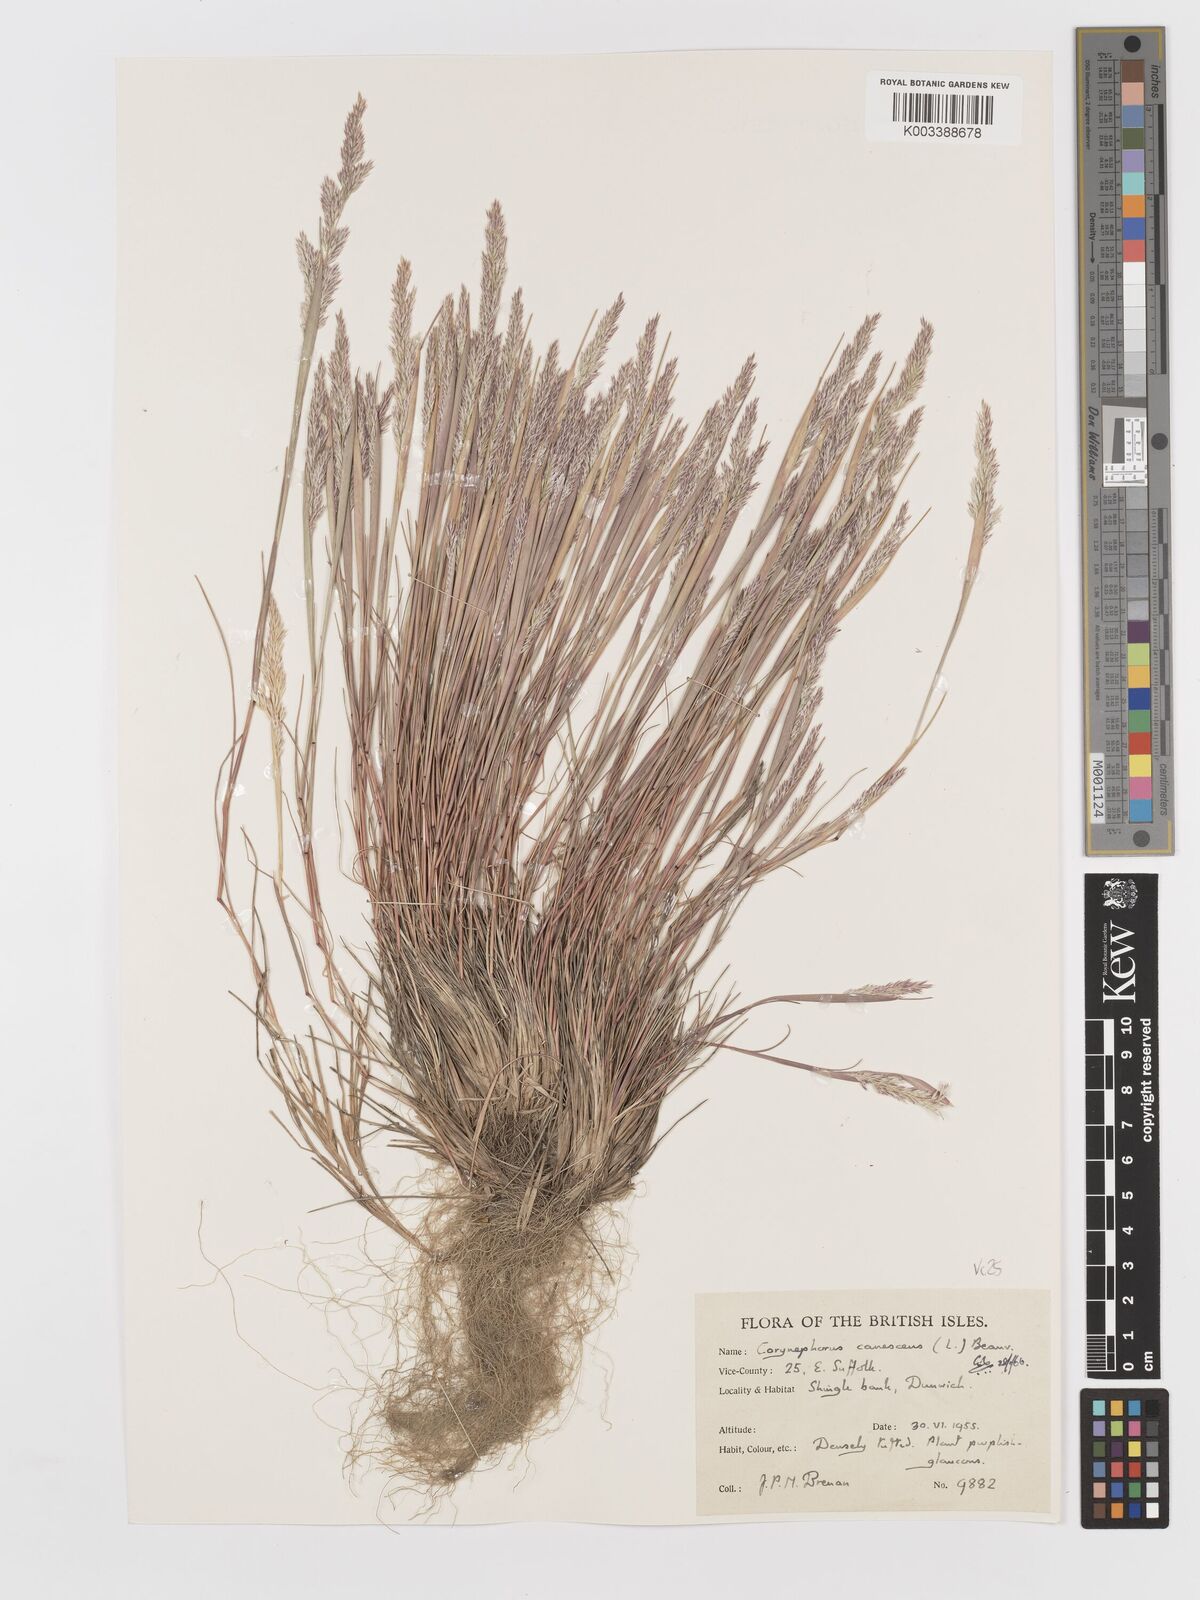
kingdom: Plantae
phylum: Tracheophyta
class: Liliopsida
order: Poales
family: Poaceae
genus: Corynephorus
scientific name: Corynephorus canescens
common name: Grey hair-grass
